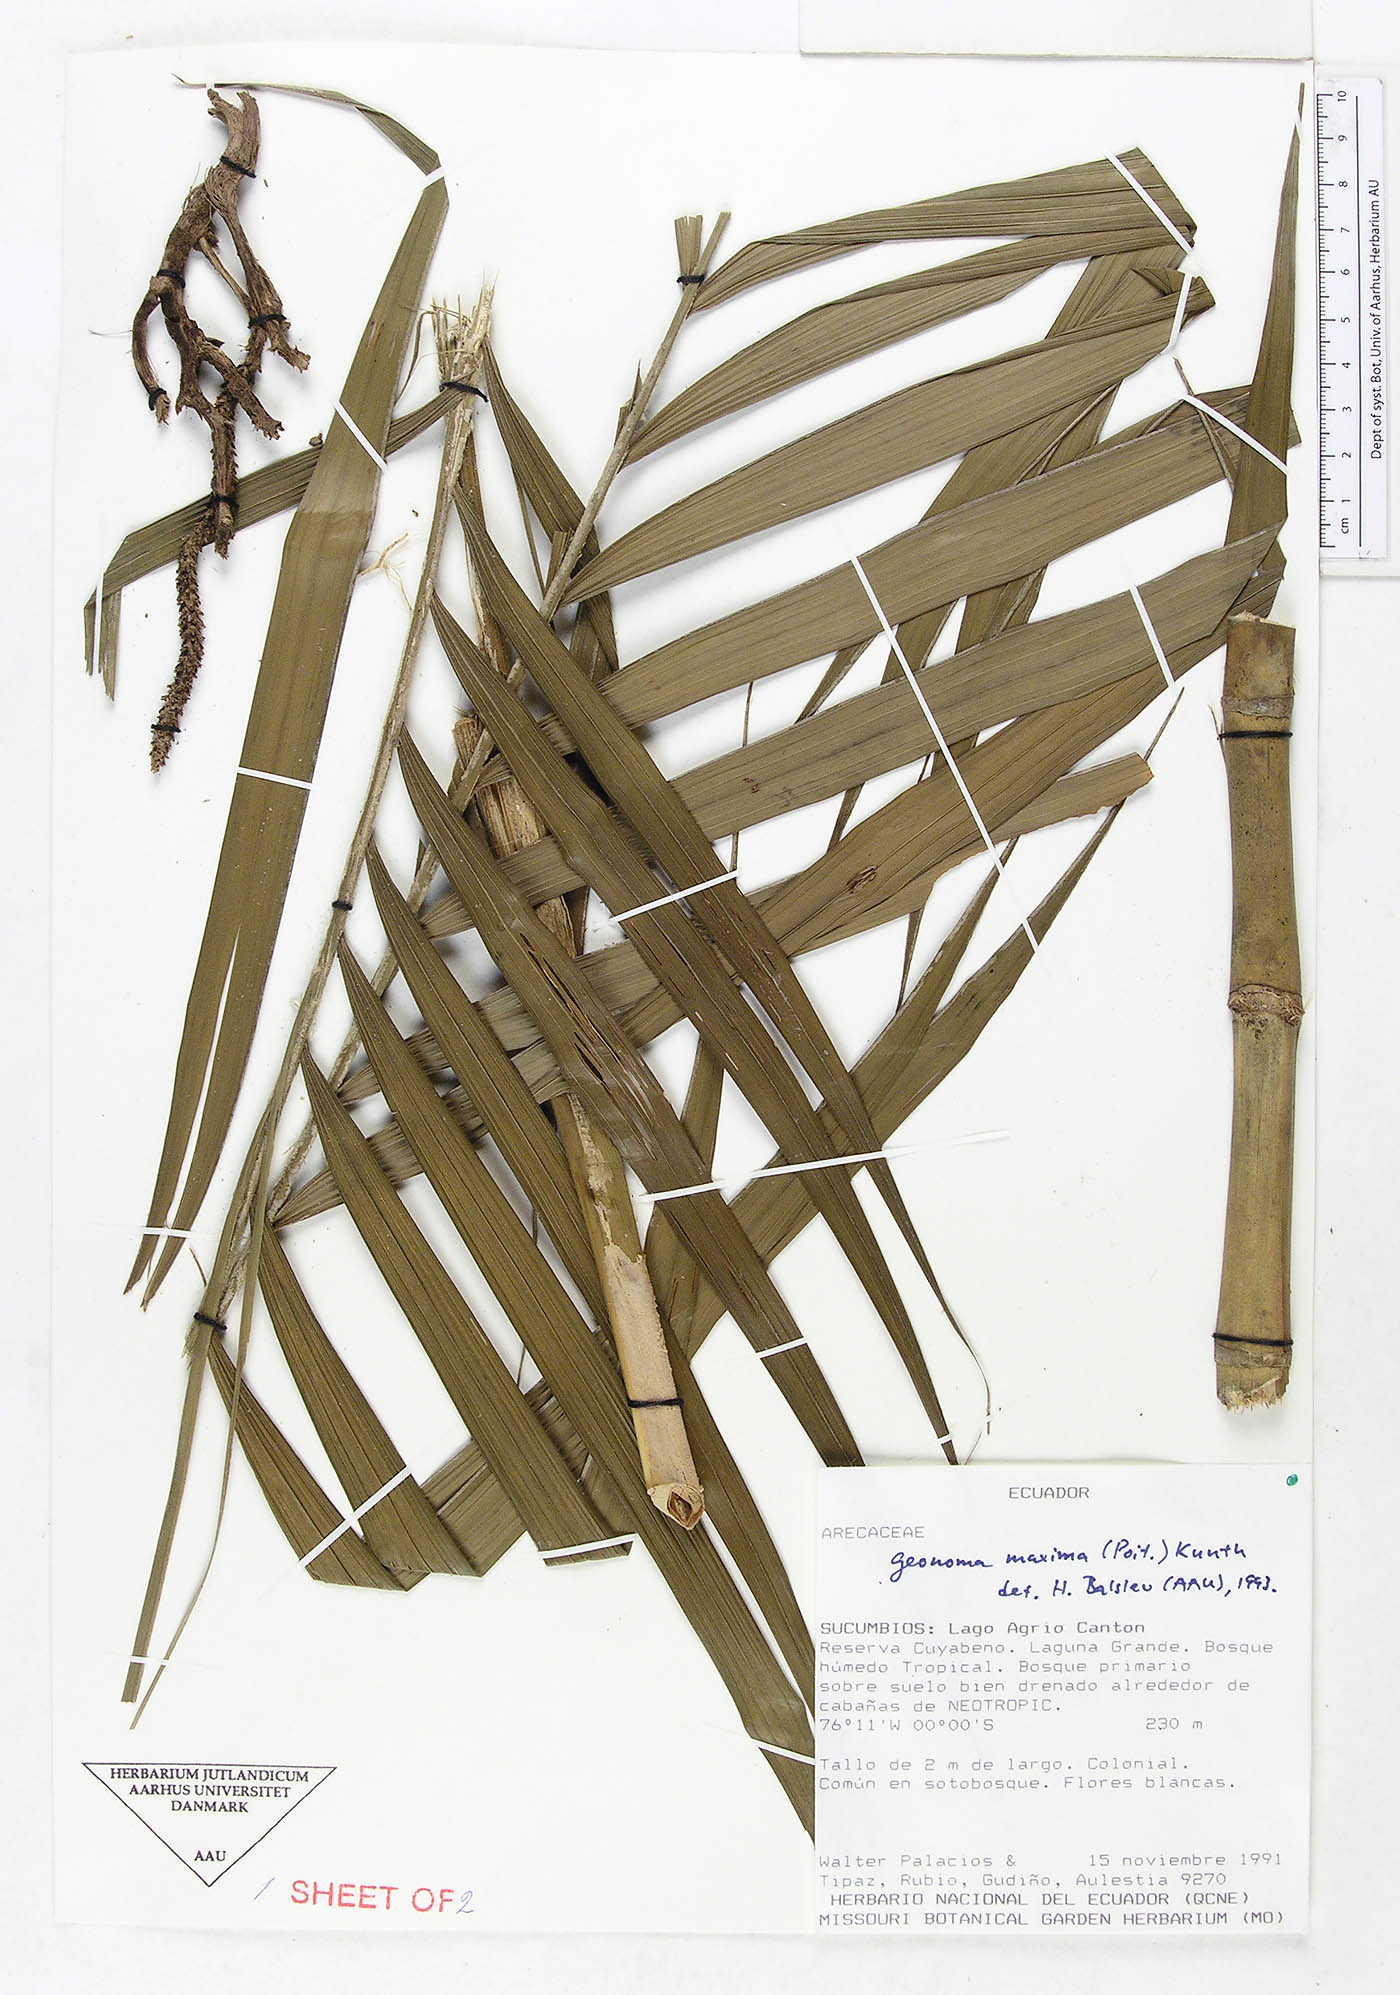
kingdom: Plantae
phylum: Tracheophyta
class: Liliopsida
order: Arecales
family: Arecaceae
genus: Geonoma
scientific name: Geonoma maxima
